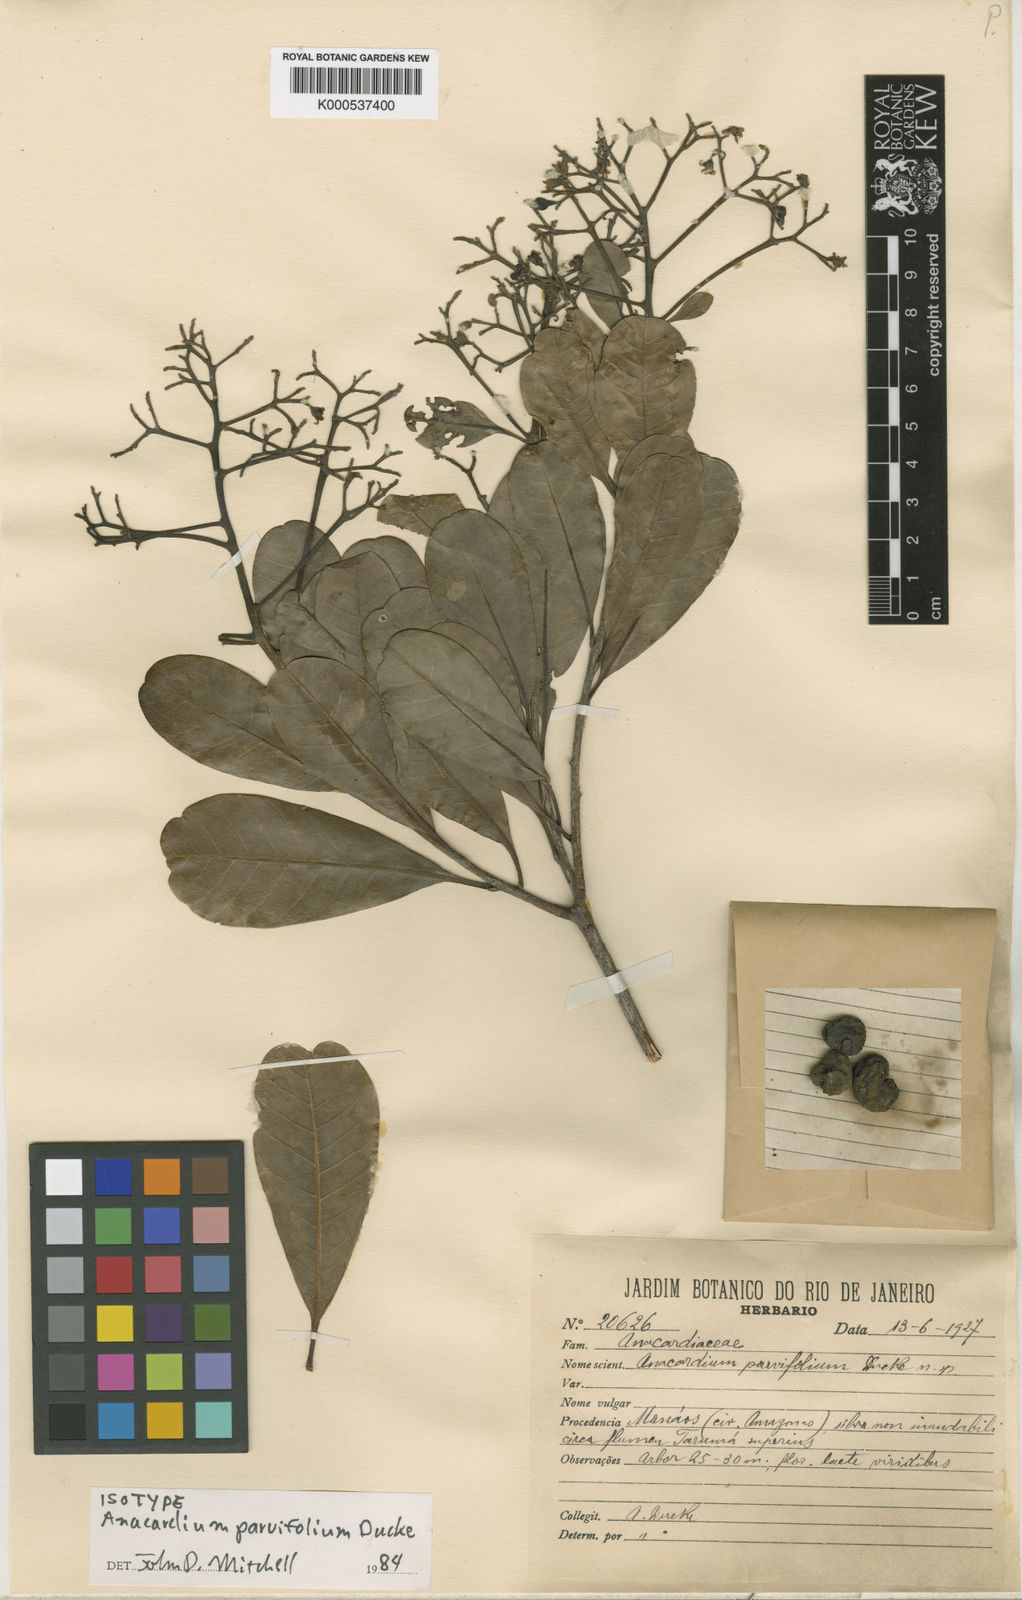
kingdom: Plantae
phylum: Tracheophyta
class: Magnoliopsida
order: Sapindales
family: Anacardiaceae
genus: Anacardium
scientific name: Anacardium parvifolium
